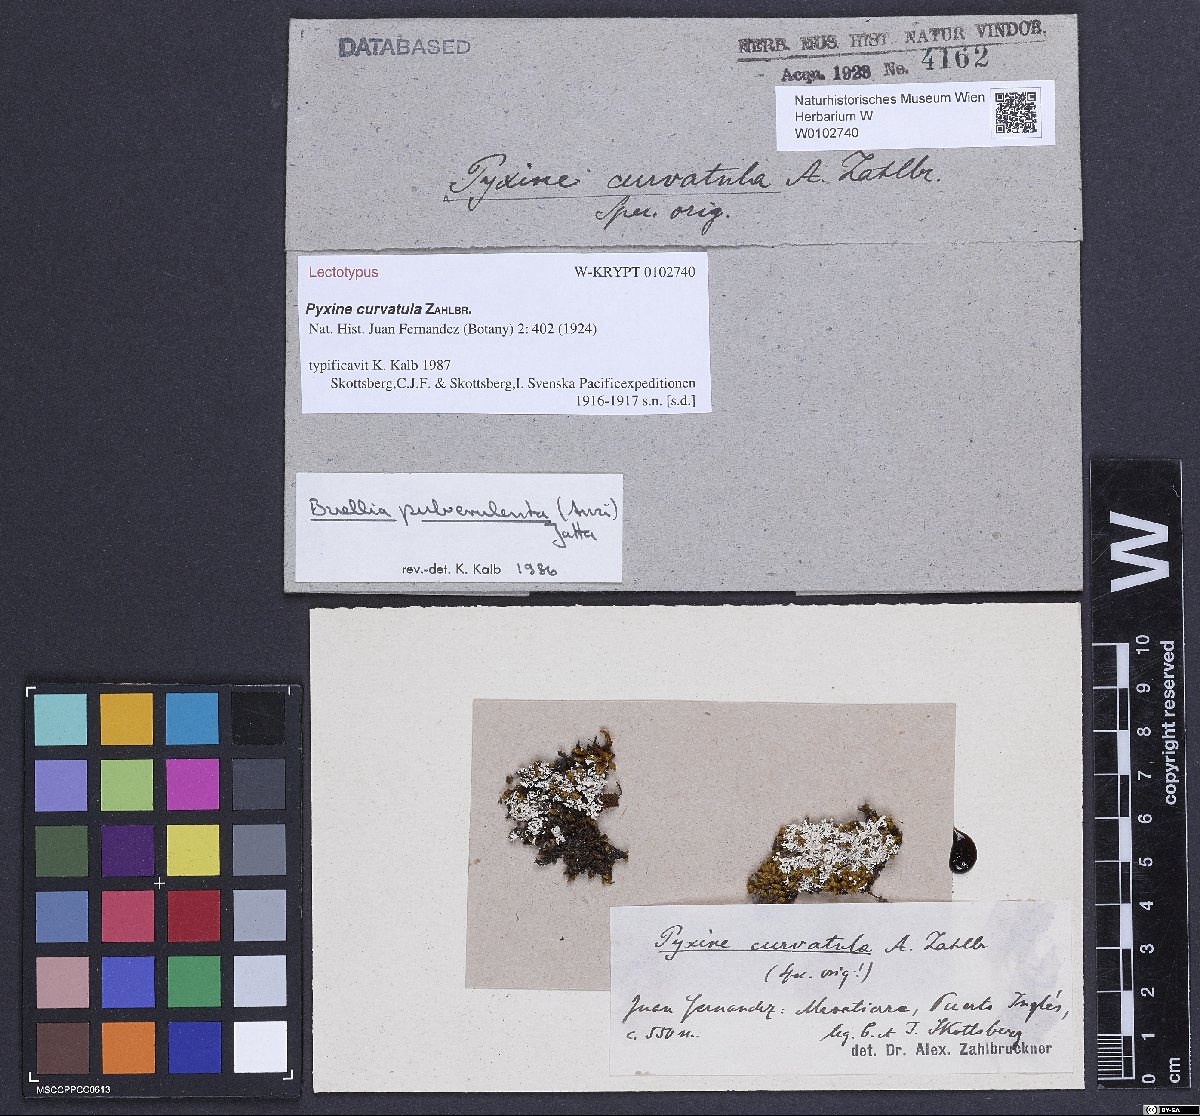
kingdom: Fungi
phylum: Ascomycota
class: Lecanoromycetes
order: Caliciales
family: Caliciaceae
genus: Tetramelas
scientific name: Tetramelas pulverulentus
